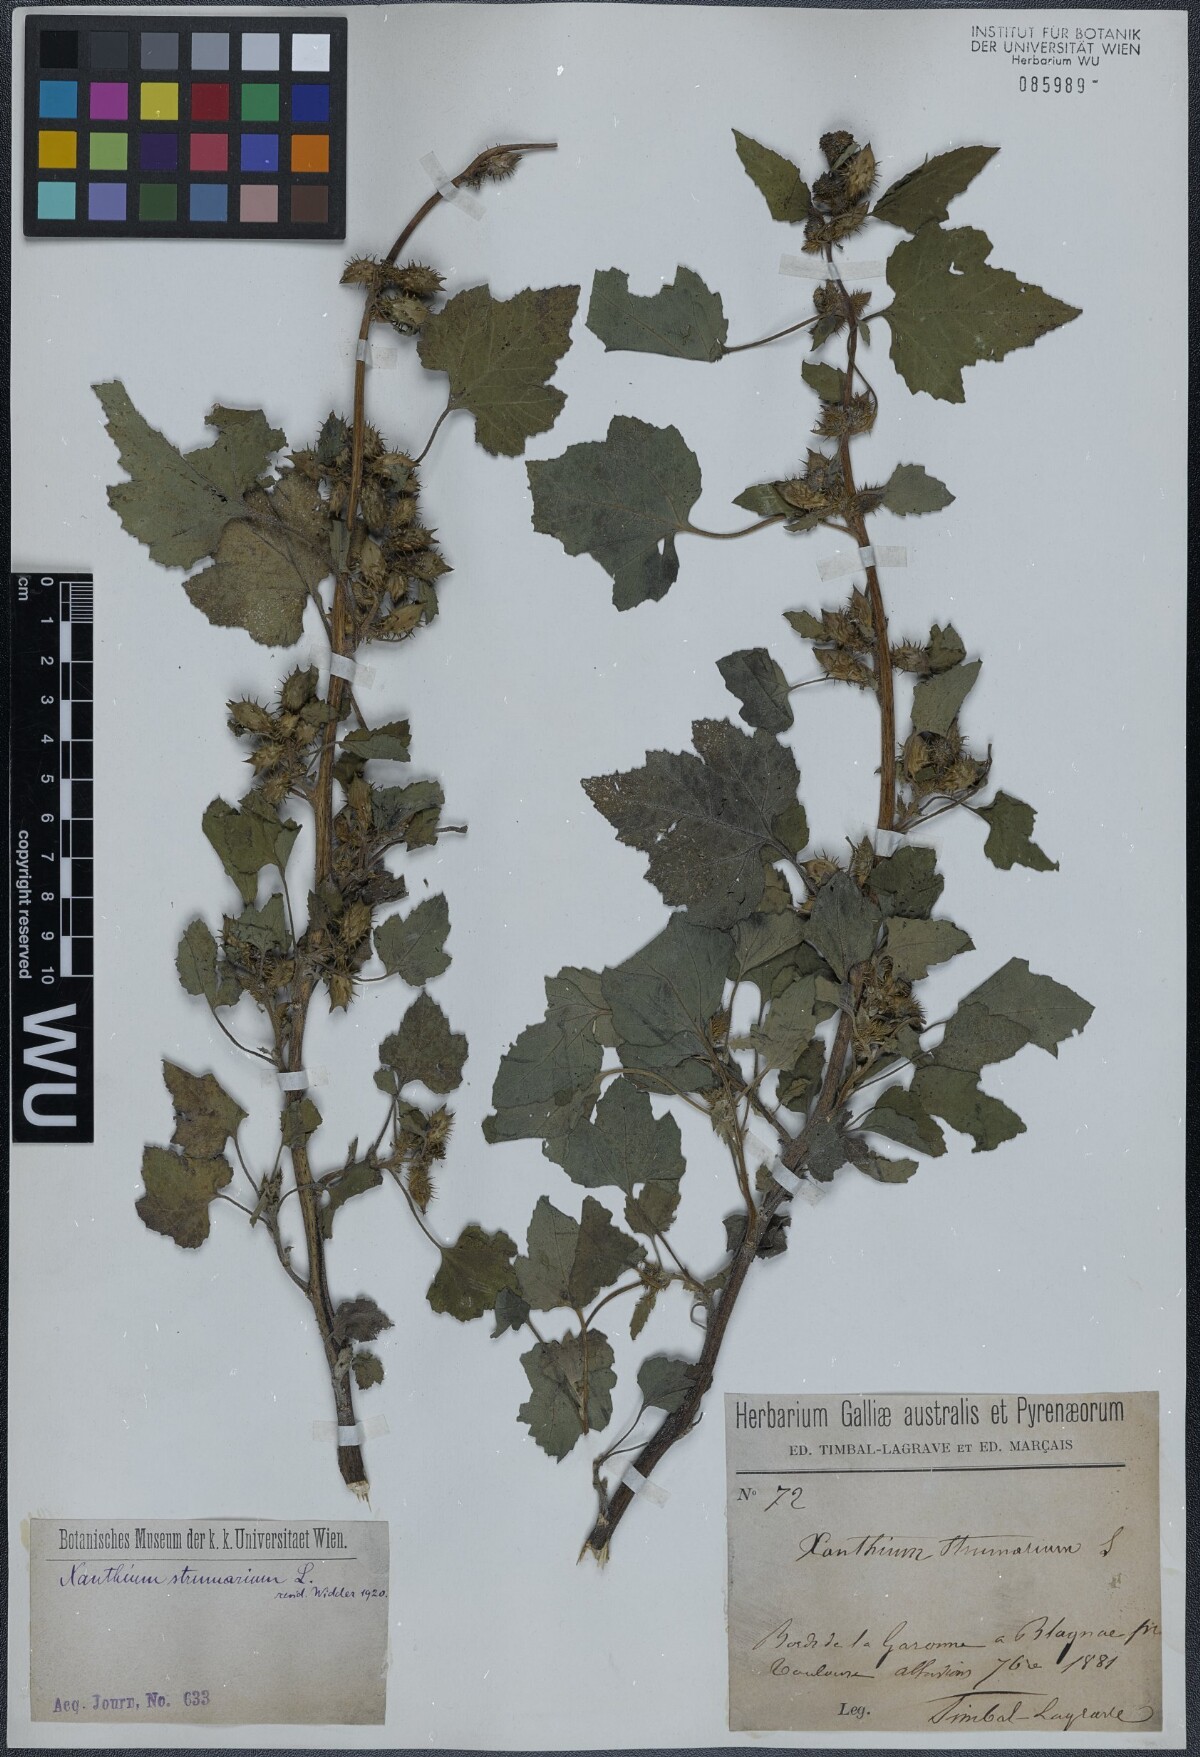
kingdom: Plantae
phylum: Tracheophyta
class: Magnoliopsida
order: Asterales
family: Asteraceae
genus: Xanthium
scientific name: Xanthium strumarium
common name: Rough cocklebur
